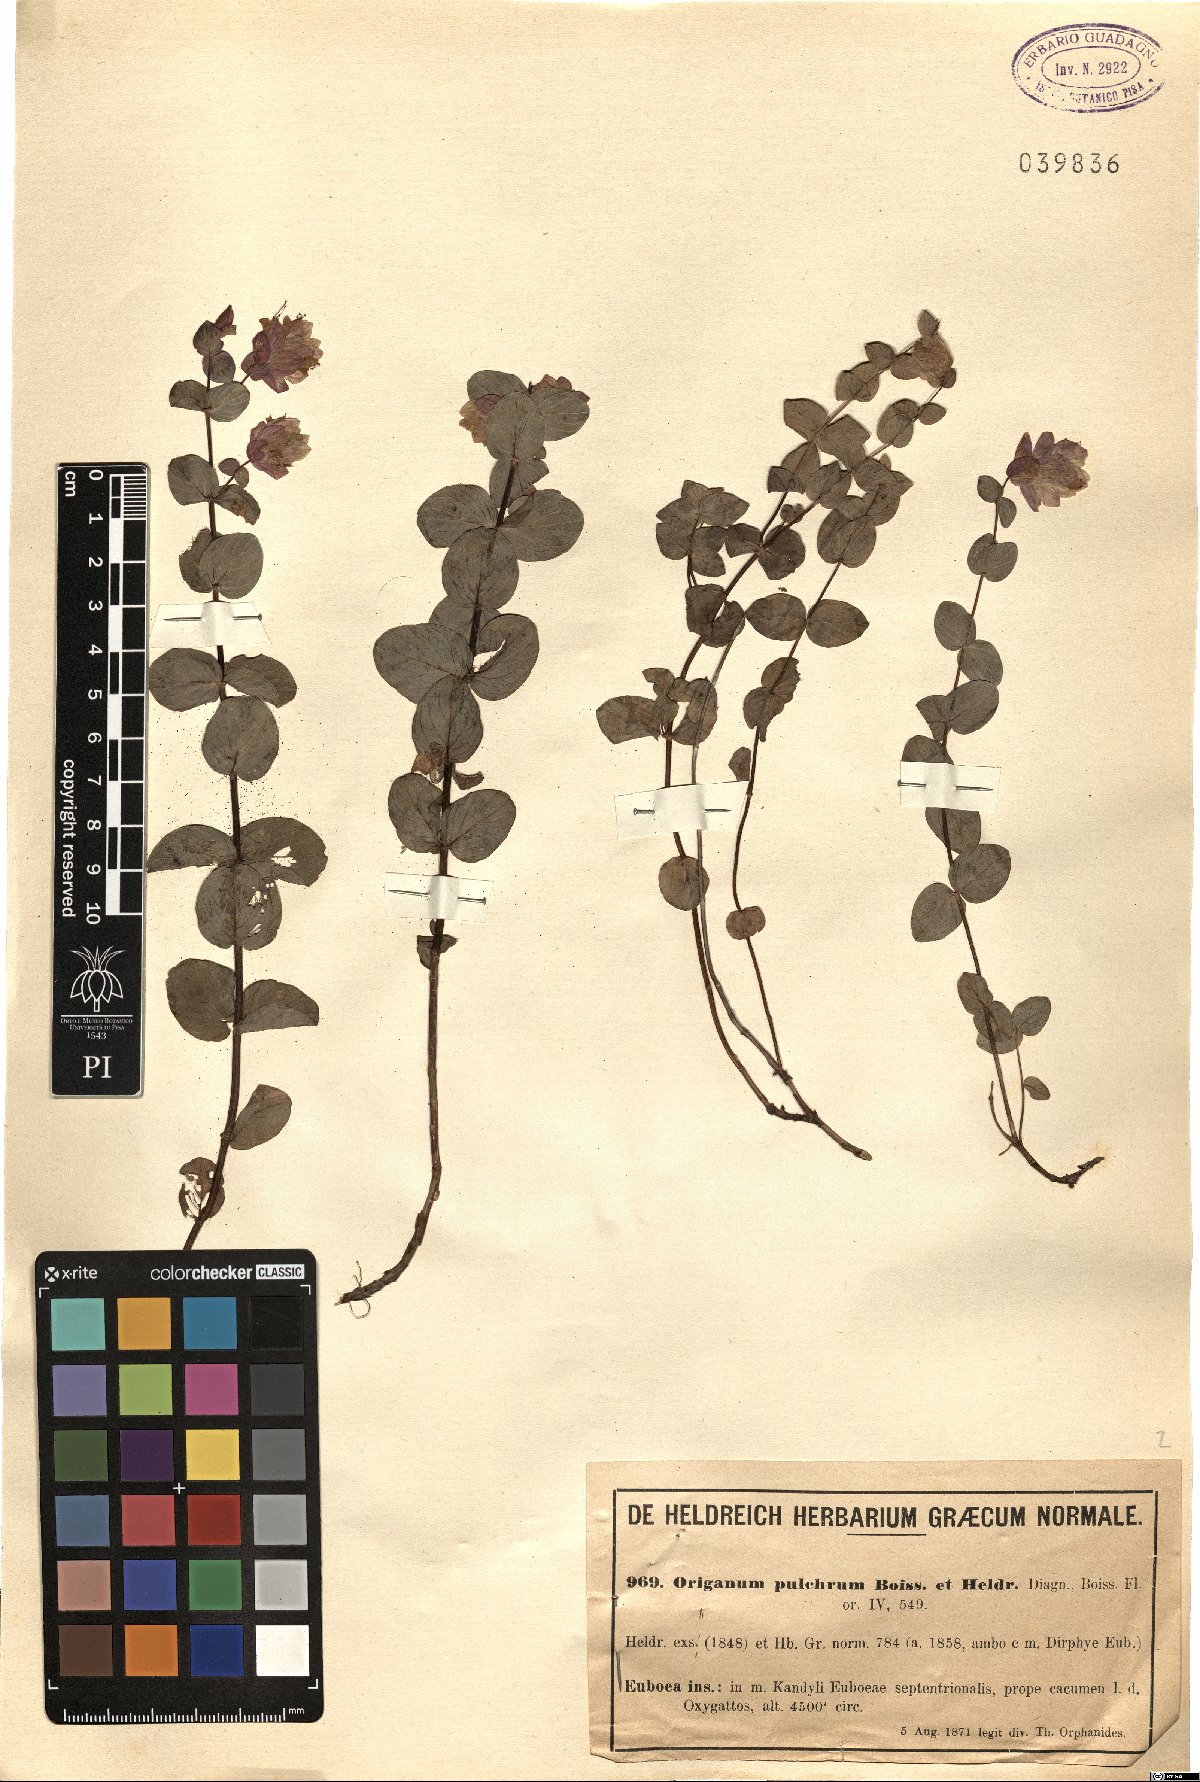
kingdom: Plantae
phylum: Tracheophyta
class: Magnoliopsida
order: Lamiales
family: Lamiaceae
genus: Origanum
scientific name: Origanum scabrum
